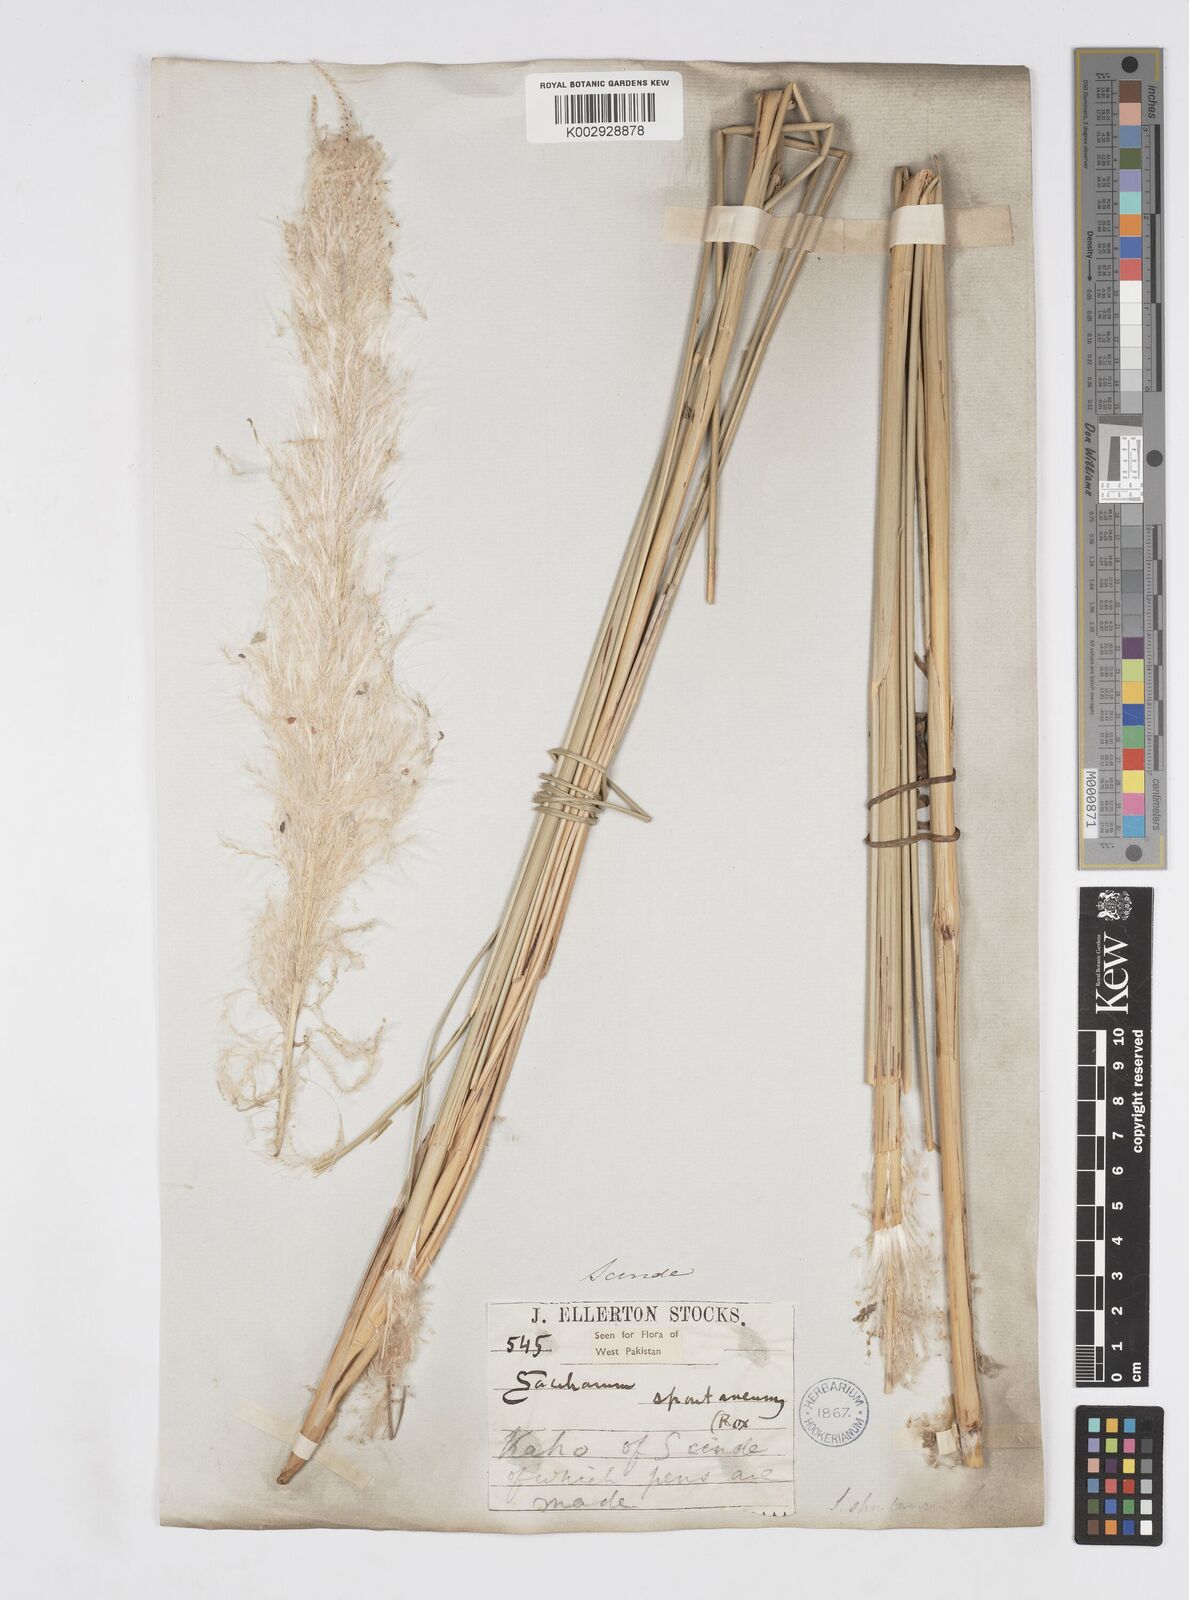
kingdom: Plantae
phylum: Tracheophyta
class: Liliopsida
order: Poales
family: Poaceae
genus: Saccharum
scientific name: Saccharum spontaneum
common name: Wild sugarcane
